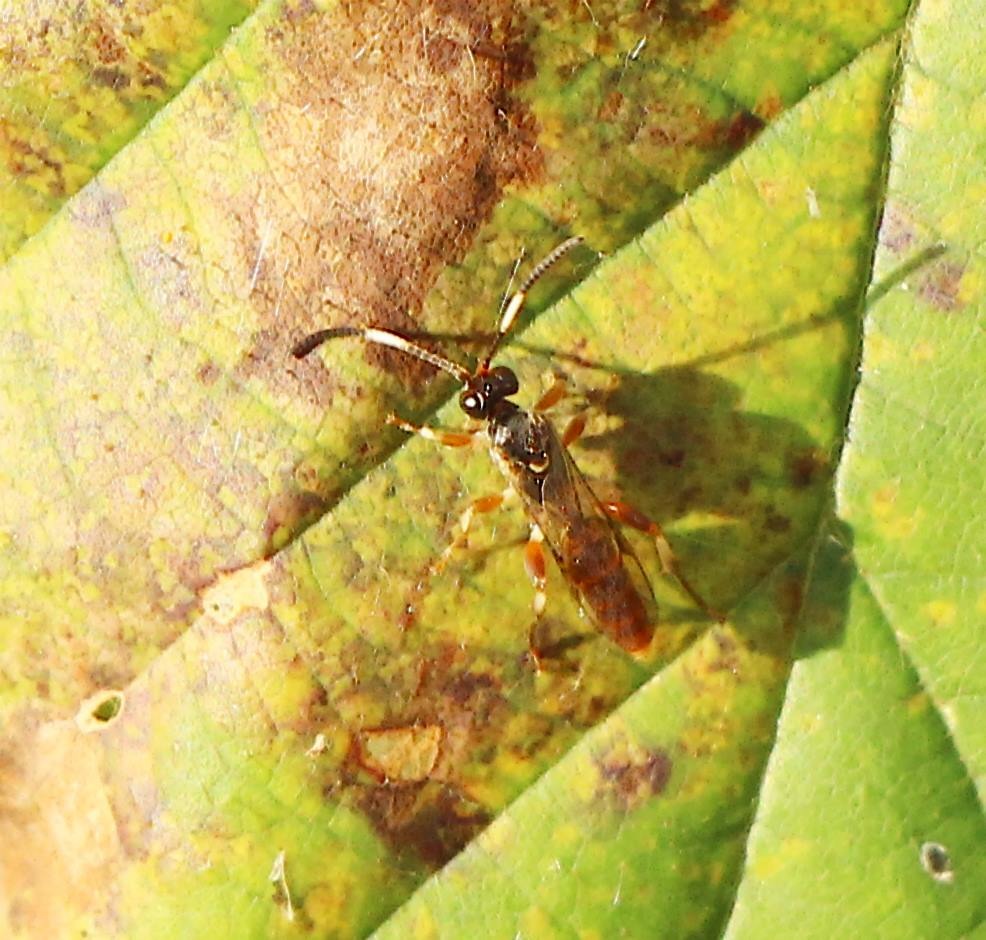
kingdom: Animalia
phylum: Arthropoda
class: Insecta
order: Hymenoptera
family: Ichneumonidae
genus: Homotherus
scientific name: Homotherus varipes
